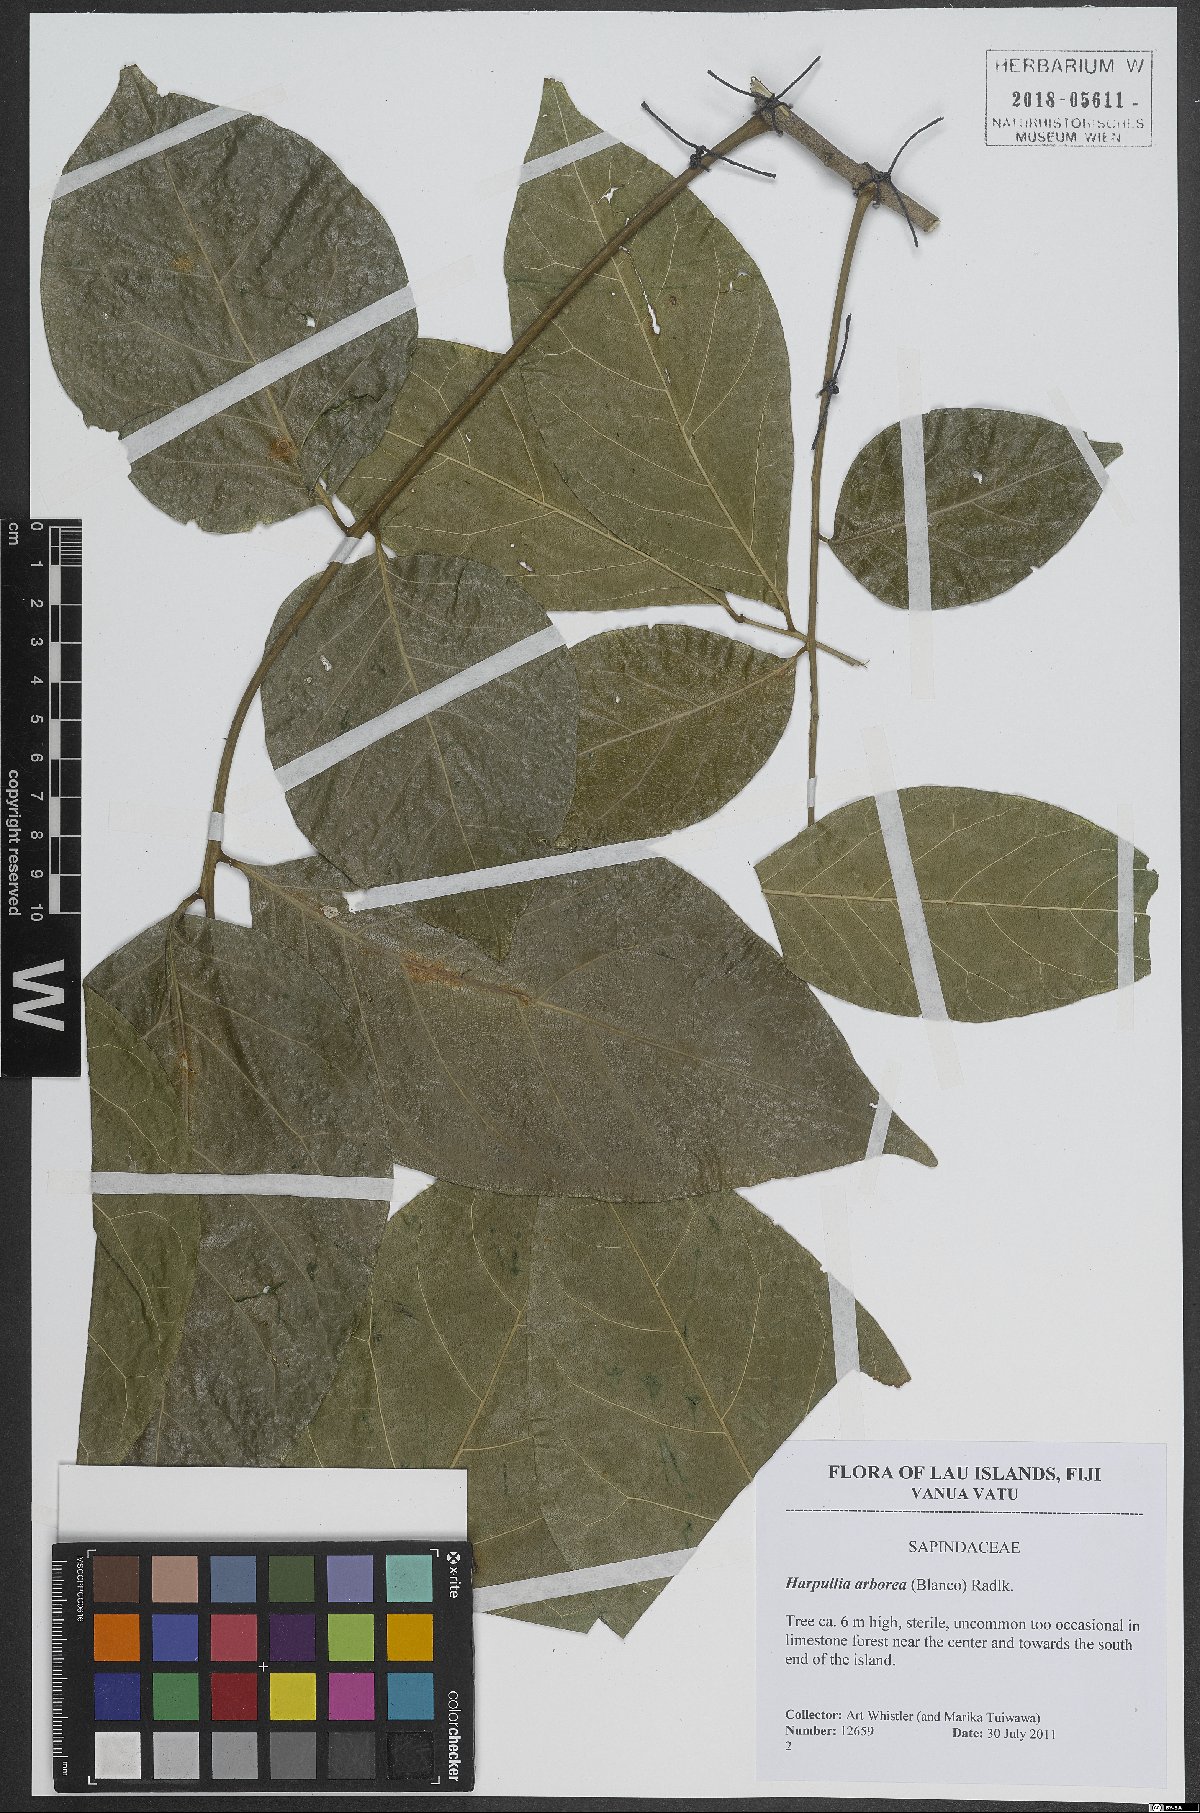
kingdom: Plantae
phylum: Tracheophyta
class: Magnoliopsida
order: Sapindales
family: Sapindaceae
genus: Harpullia
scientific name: Harpullia arborea
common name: Tulip-wood tree
